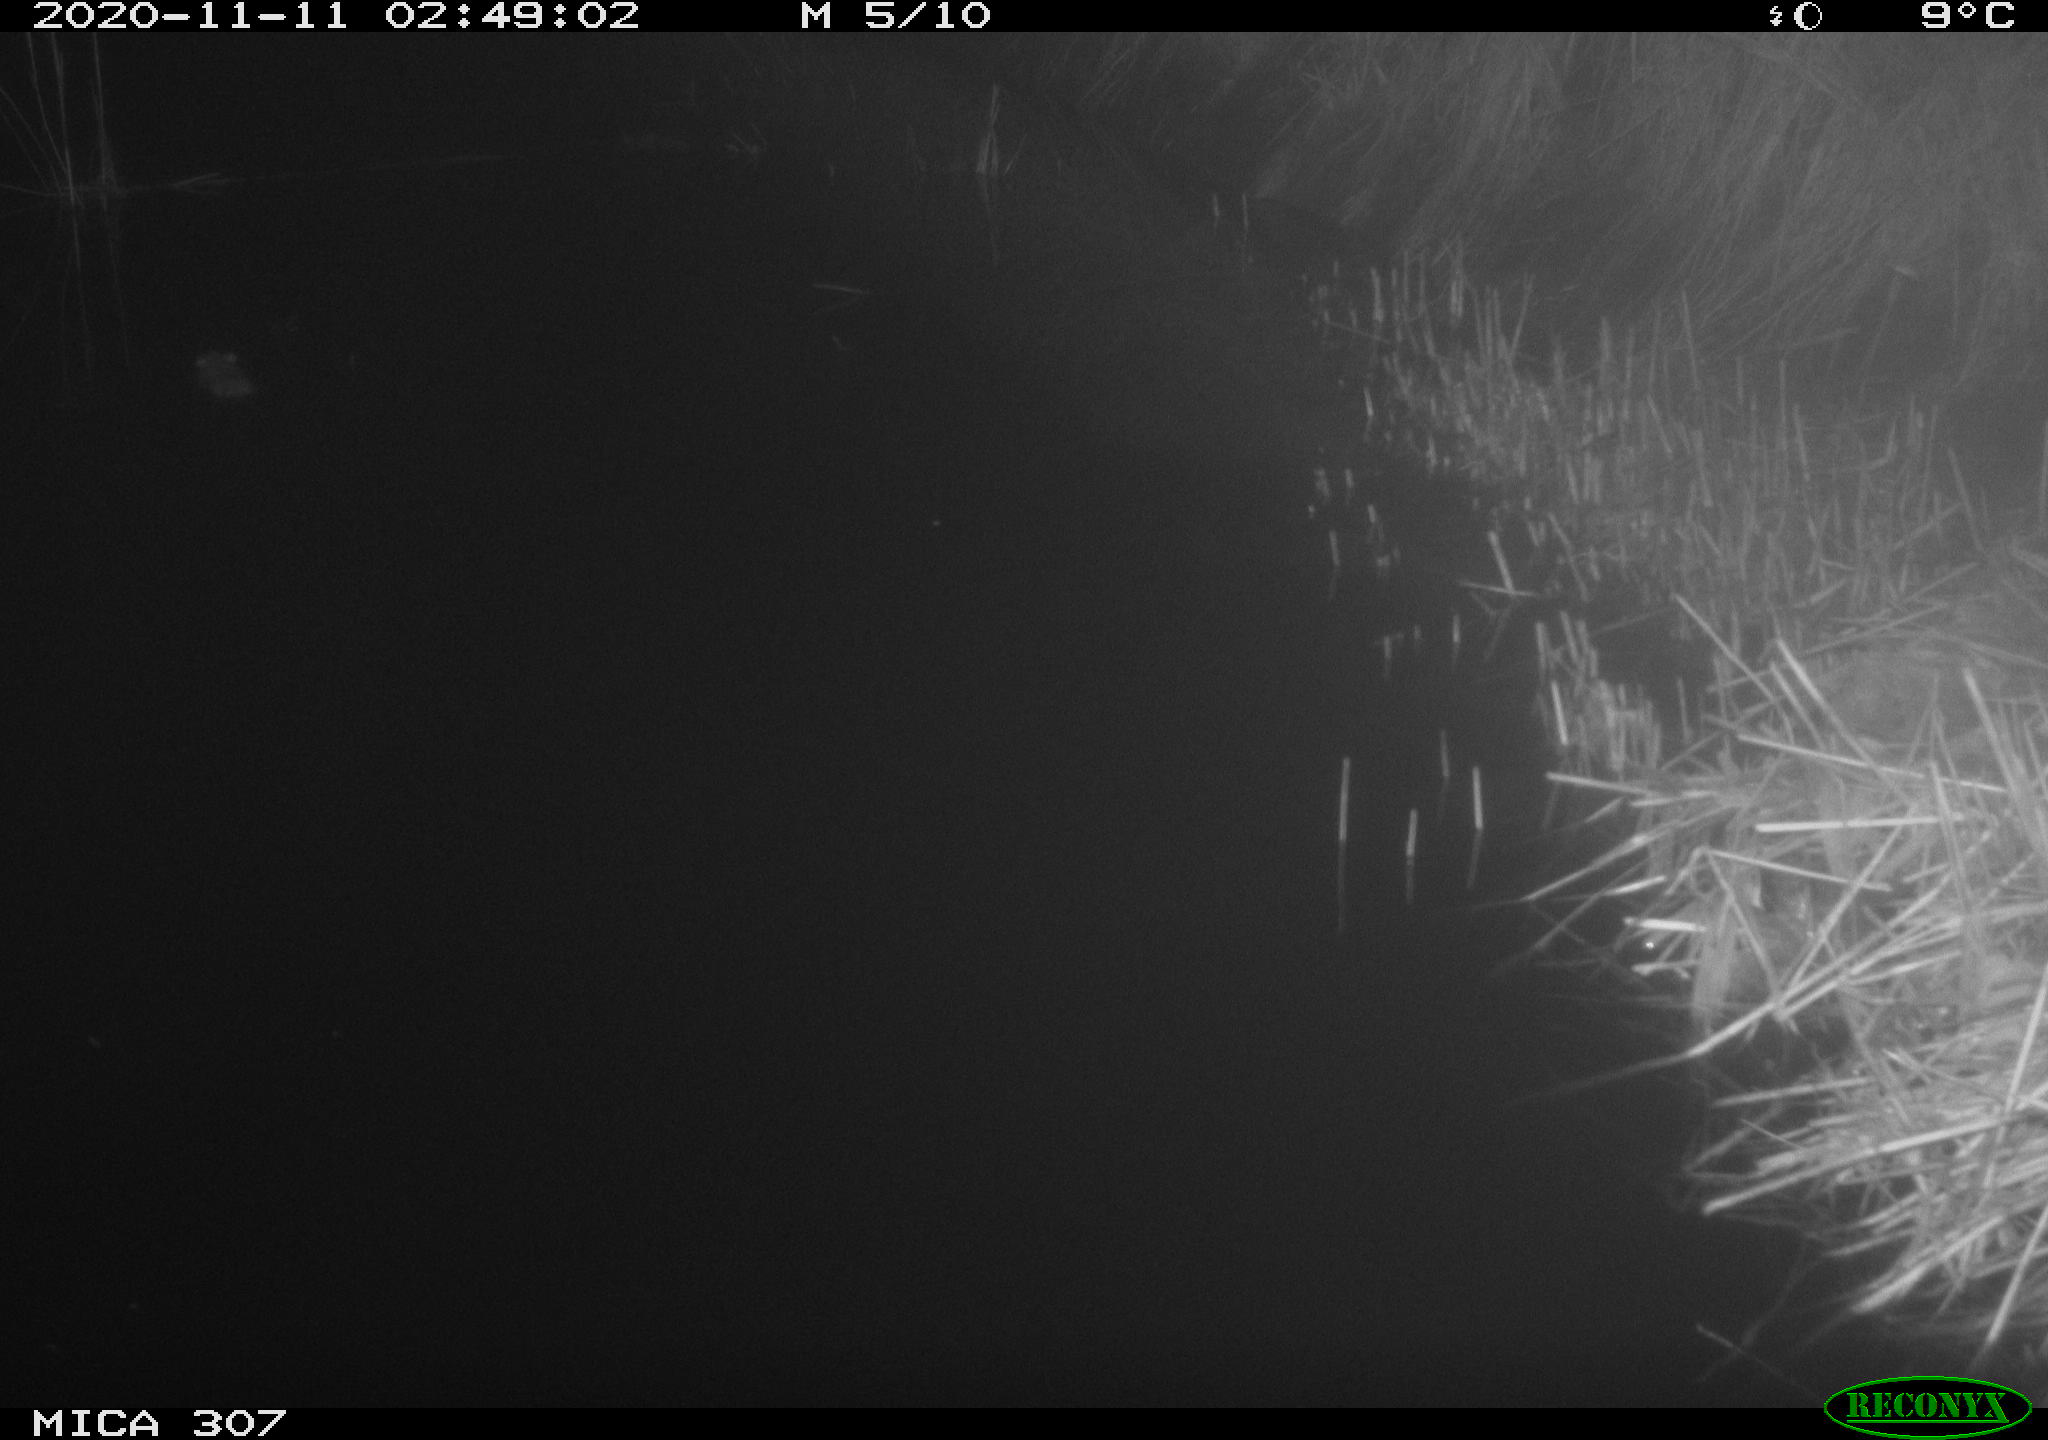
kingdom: Animalia
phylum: Chordata
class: Mammalia
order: Rodentia
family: Muridae
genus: Rattus
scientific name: Rattus norvegicus
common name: Brown rat
